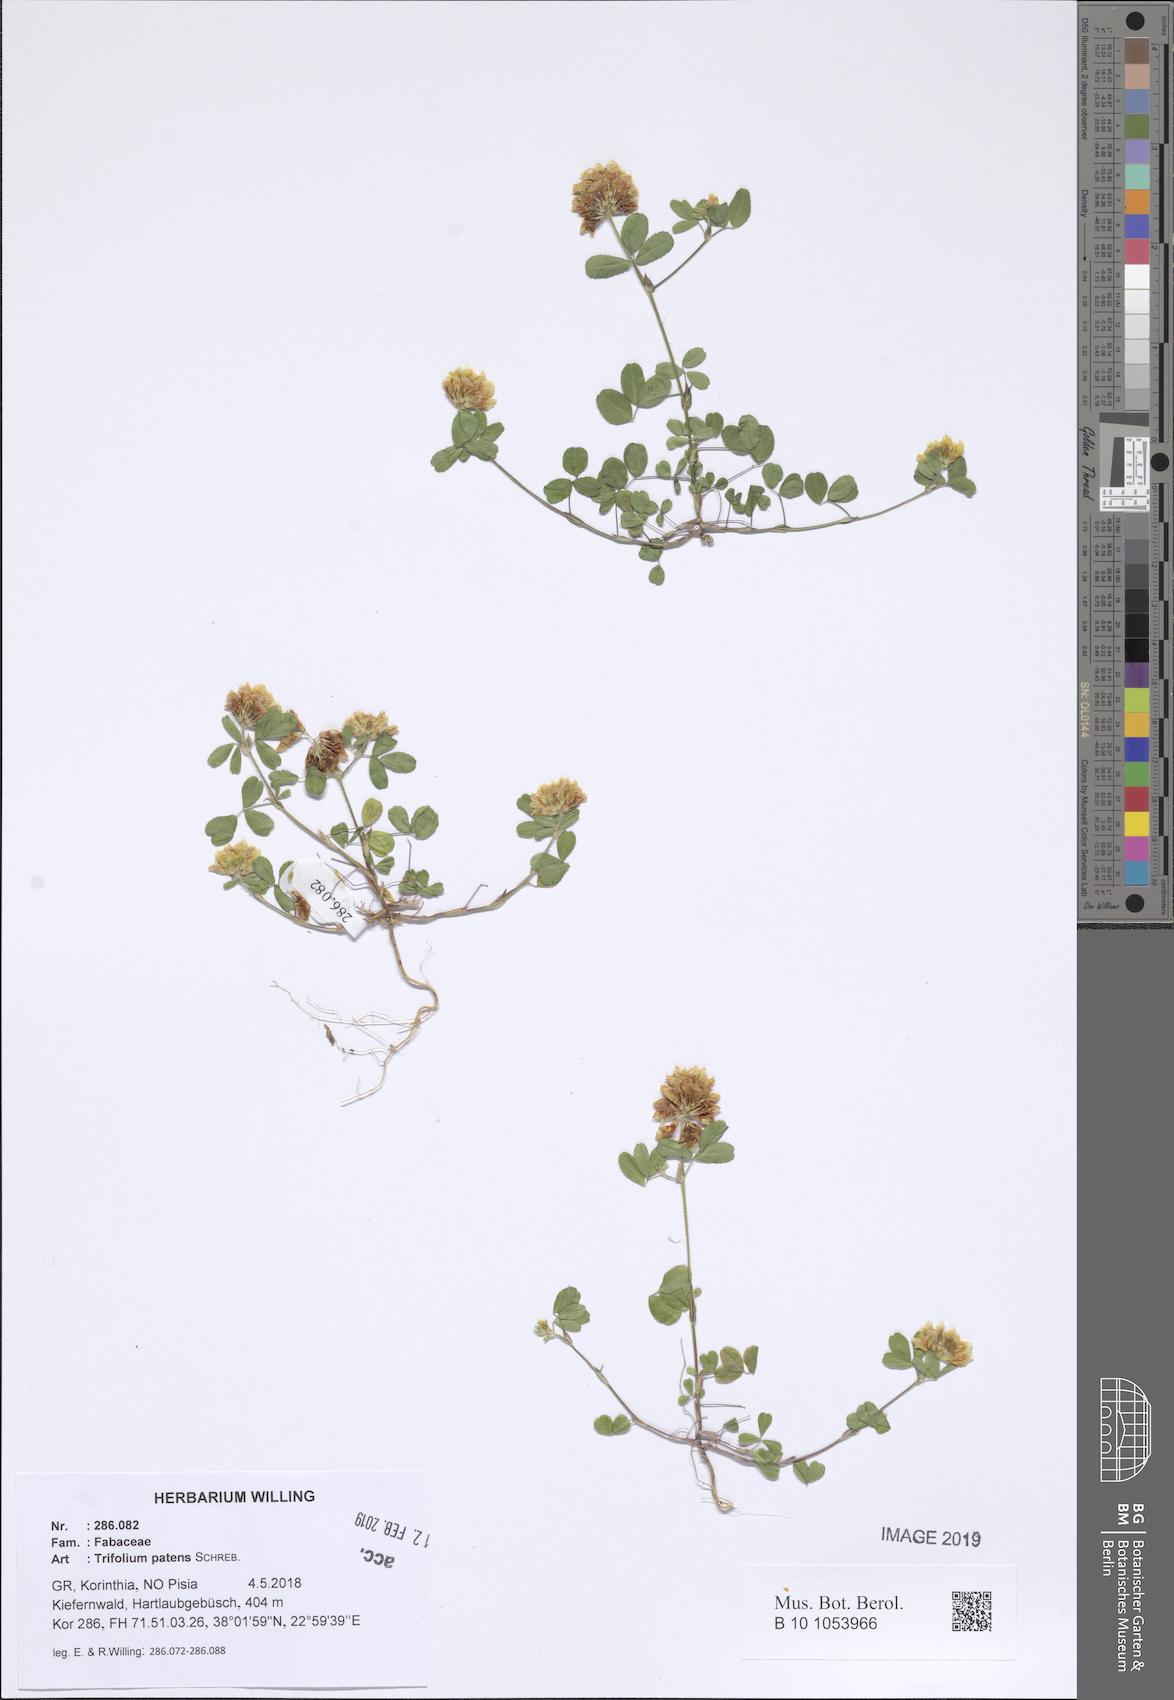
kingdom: Plantae
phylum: Tracheophyta
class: Magnoliopsida
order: Fabales
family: Fabaceae
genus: Trifolium
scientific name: Trifolium patens
